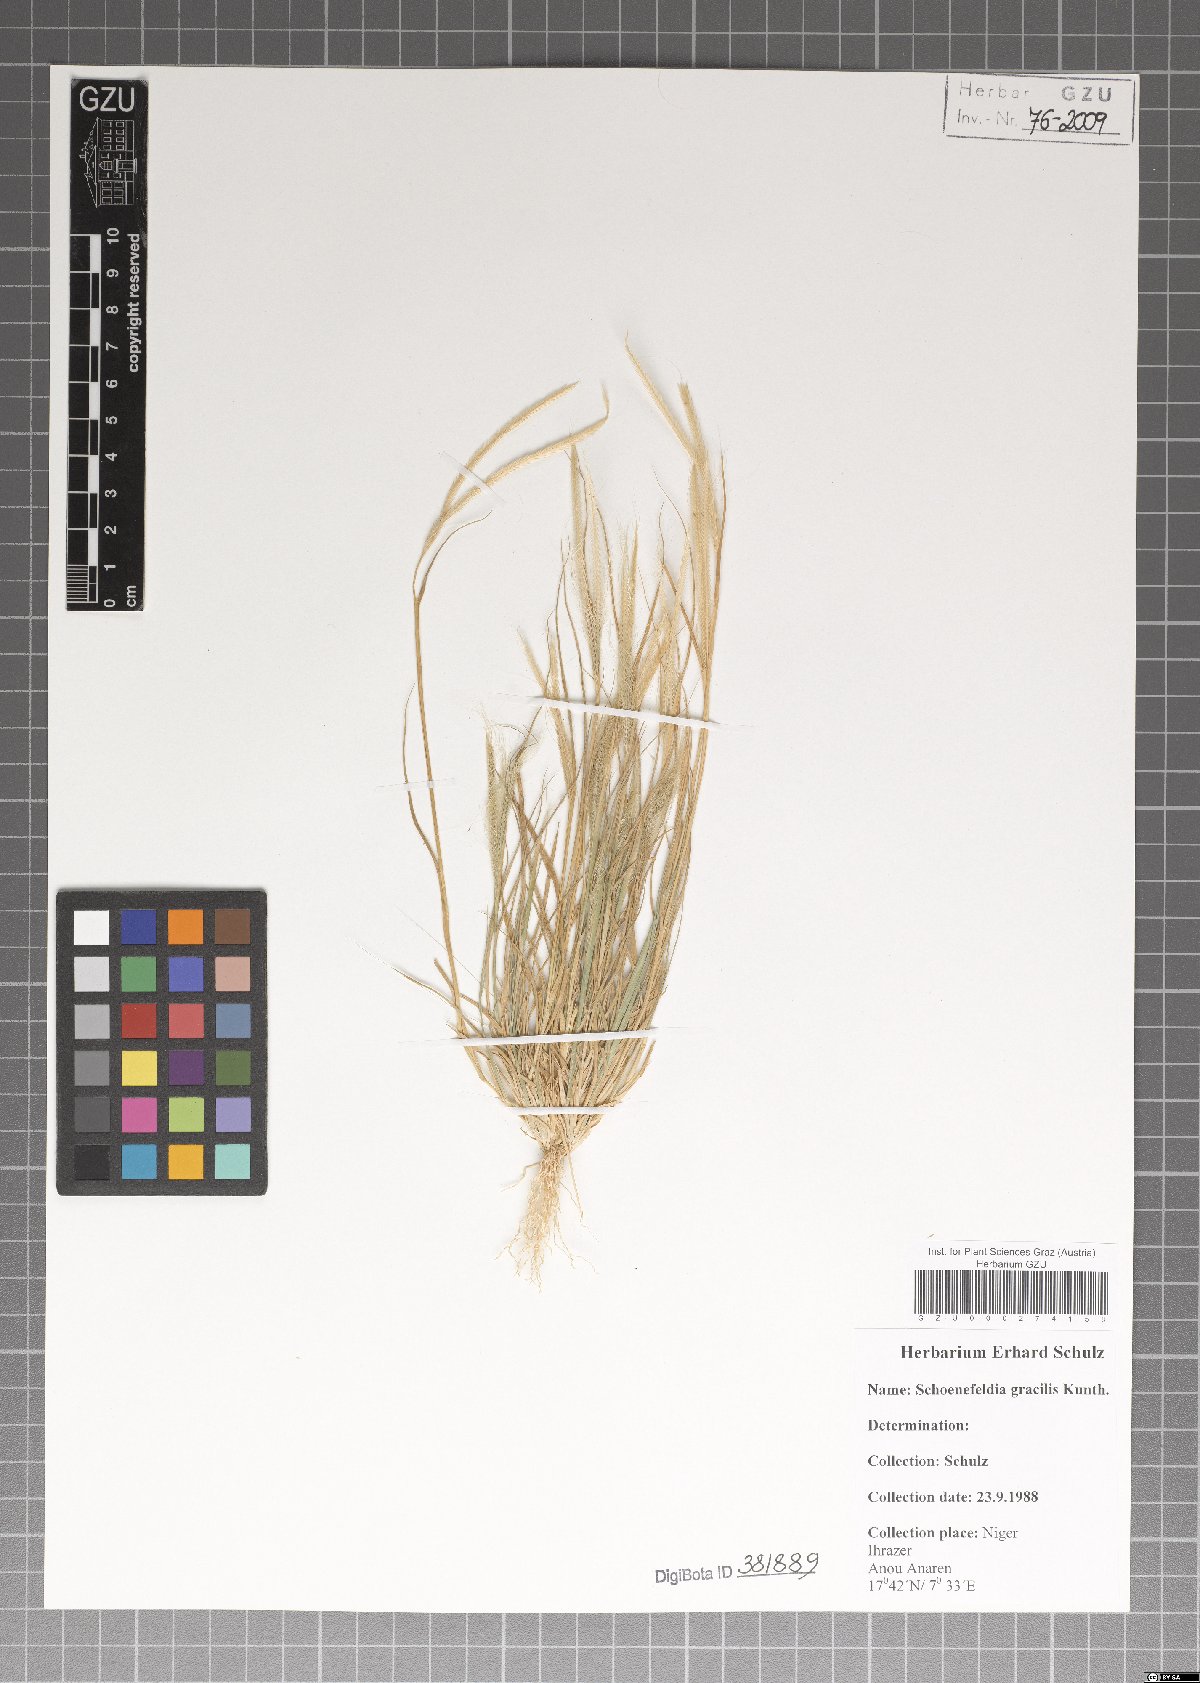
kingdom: Plantae
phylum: Tracheophyta
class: Liliopsida
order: Poales
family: Poaceae
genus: Schoenefeldia
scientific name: Schoenefeldia gracilis
